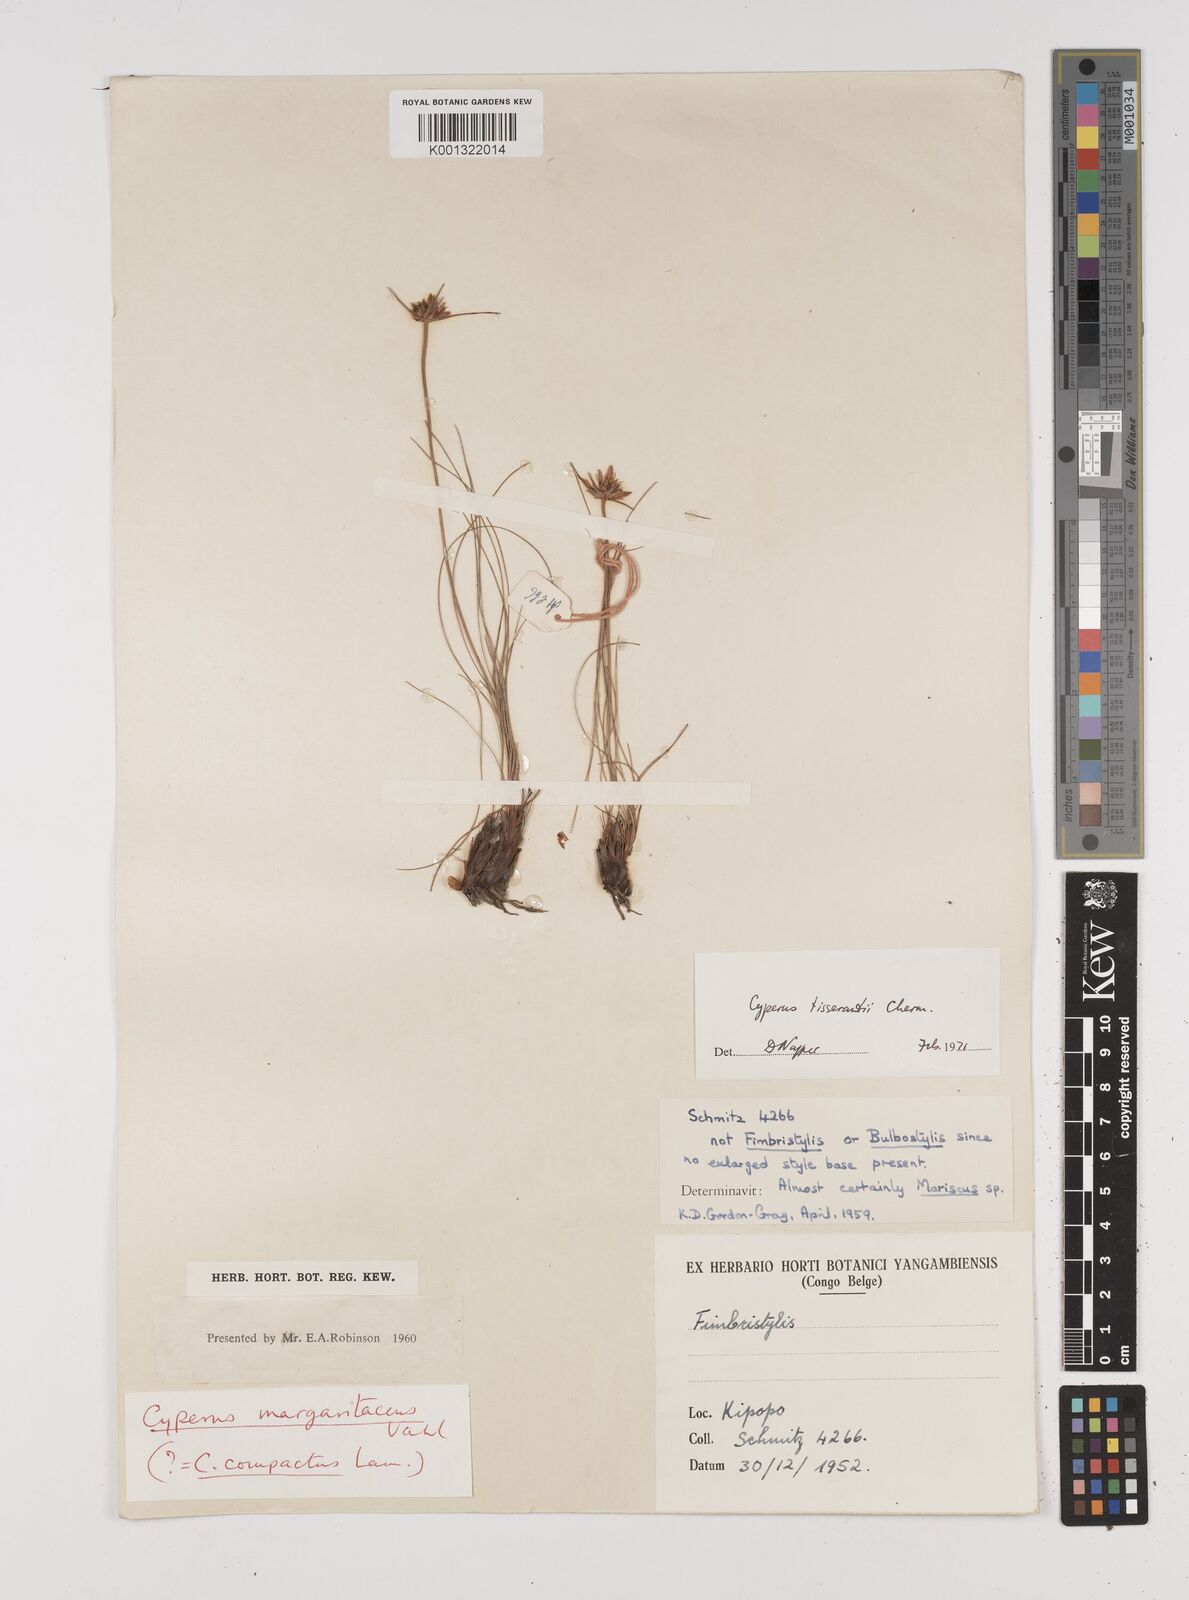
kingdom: Plantae
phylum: Tracheophyta
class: Liliopsida
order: Poales
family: Cyperaceae
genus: Cyperus
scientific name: Cyperus niveus
